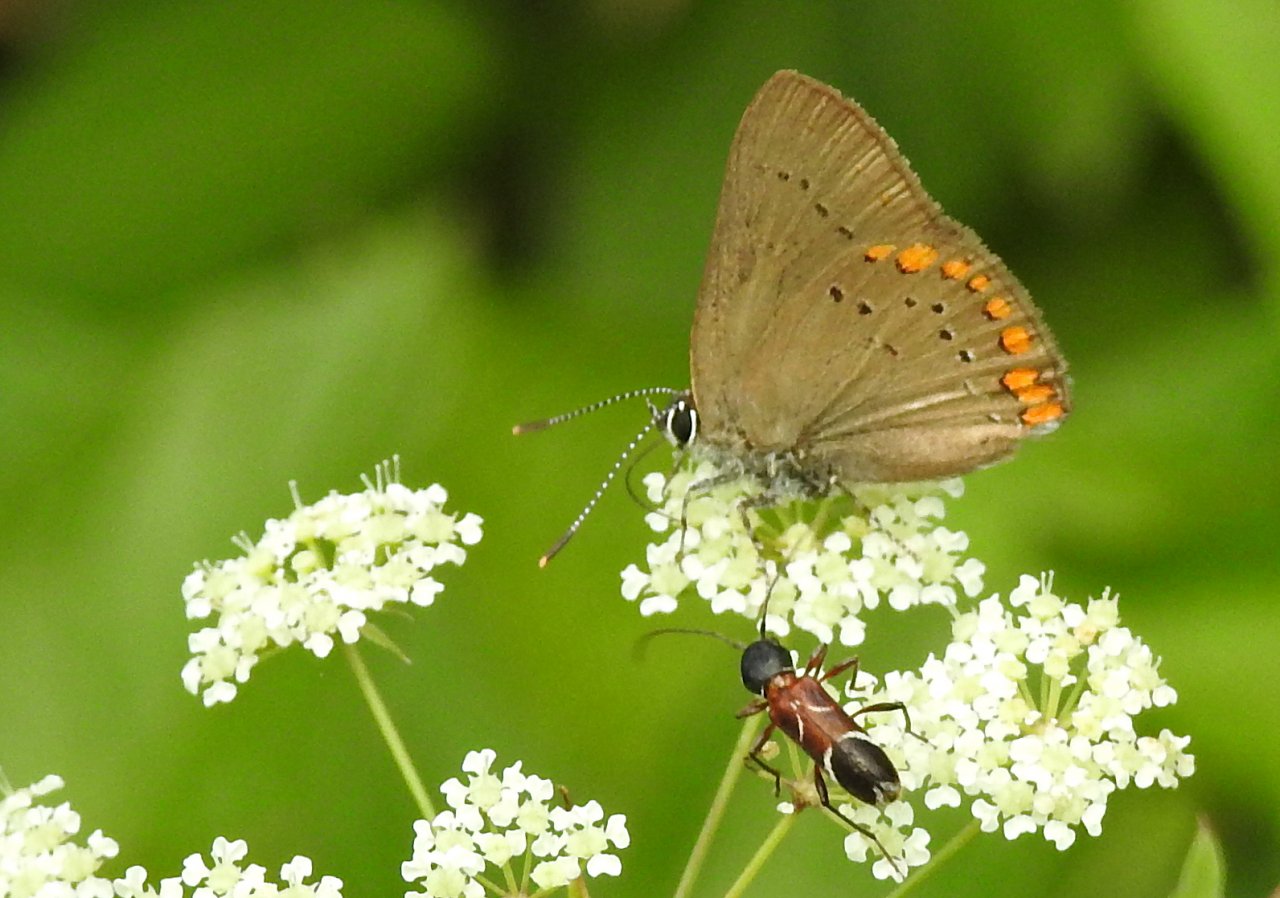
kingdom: Animalia
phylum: Arthropoda
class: Insecta
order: Lepidoptera
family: Lycaenidae
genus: Harkenclenus
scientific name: Harkenclenus titus
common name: Coral Hairstreak
